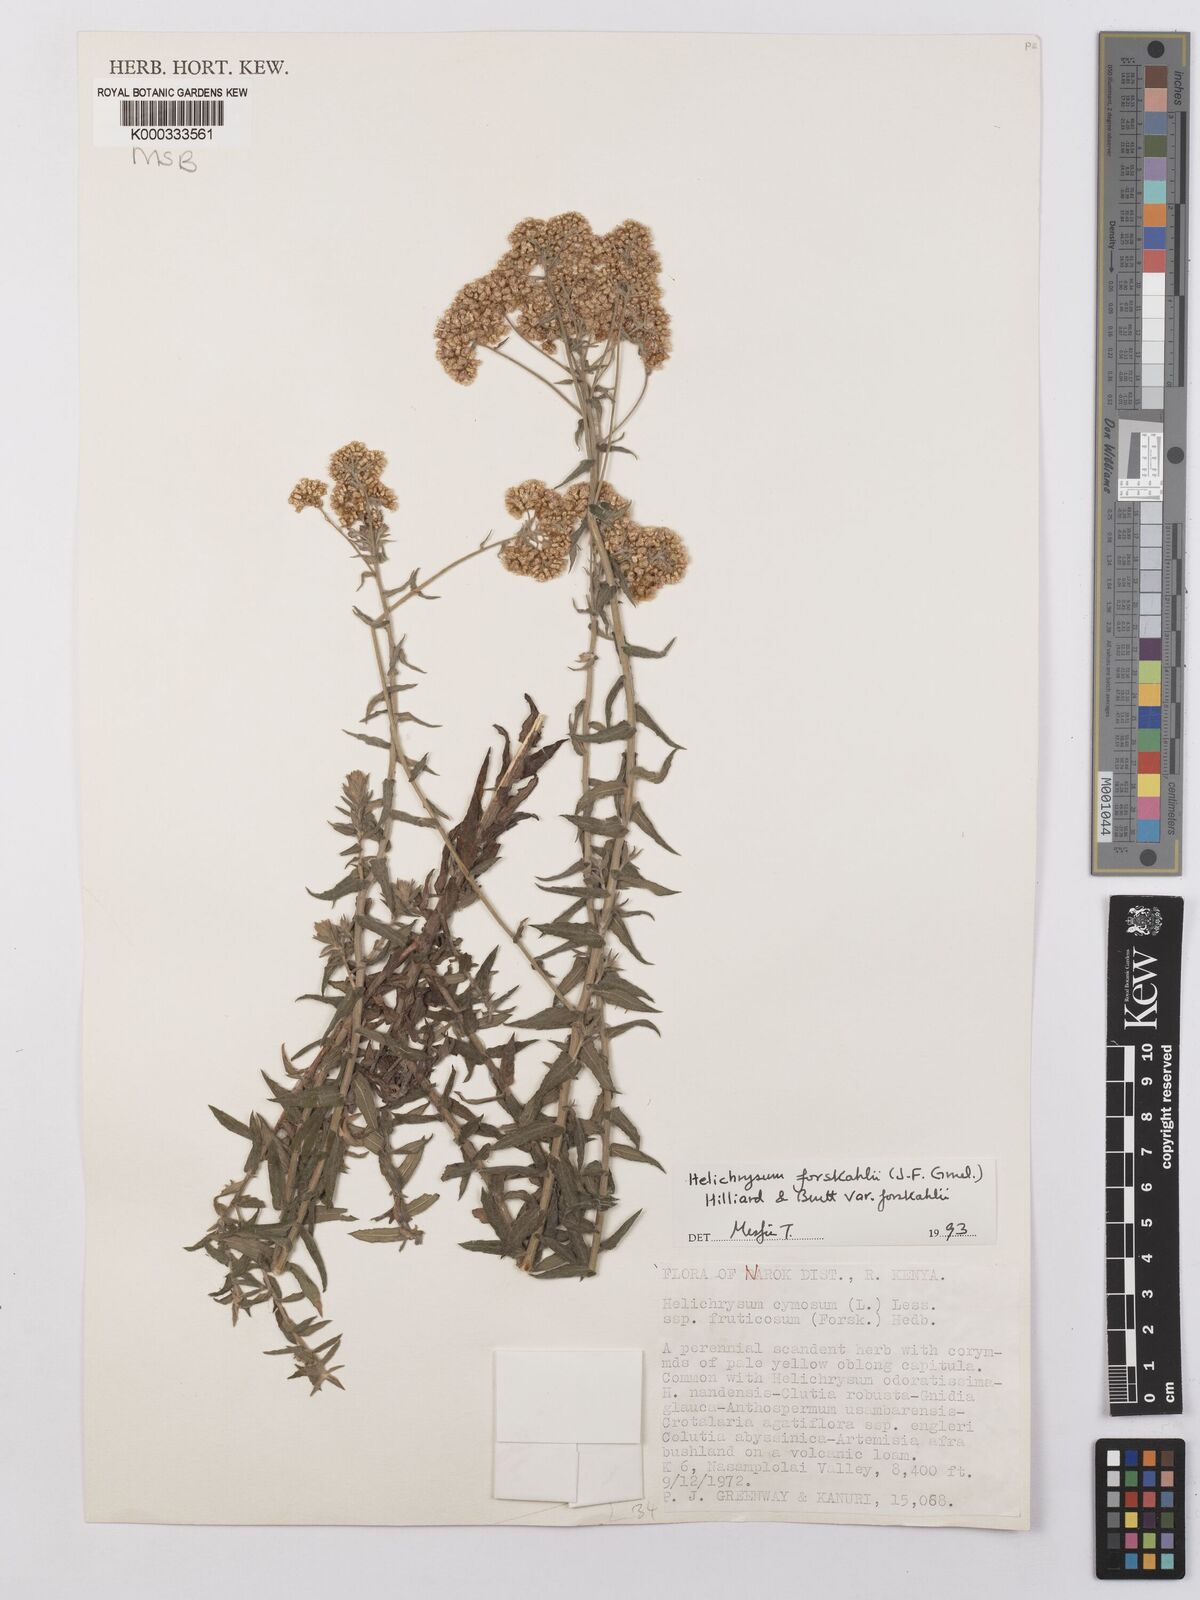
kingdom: Plantae
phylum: Tracheophyta
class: Magnoliopsida
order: Asterales
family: Asteraceae
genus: Helichrysum
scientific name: Helichrysum forskahlii
